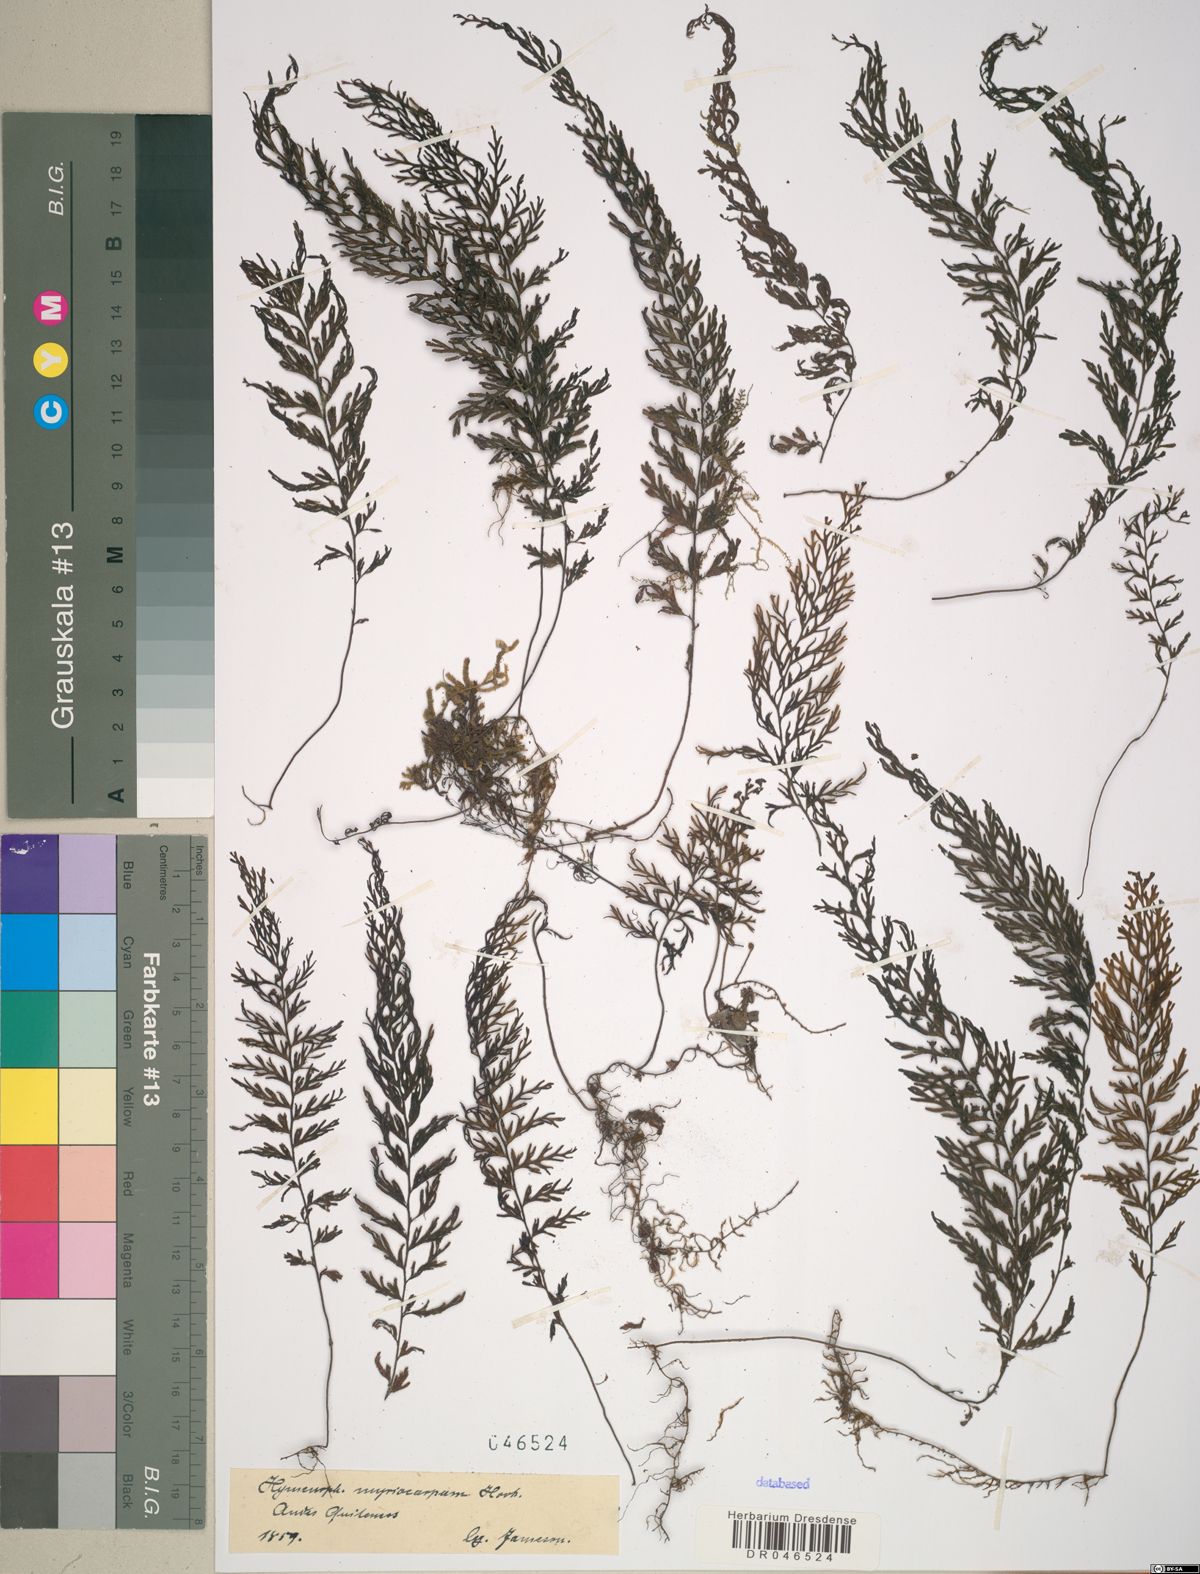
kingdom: Plantae
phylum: Tracheophyta
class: Polypodiopsida
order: Hymenophyllales
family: Hymenophyllaceae
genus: Hymenophyllum
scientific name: Hymenophyllum myriocarpum
